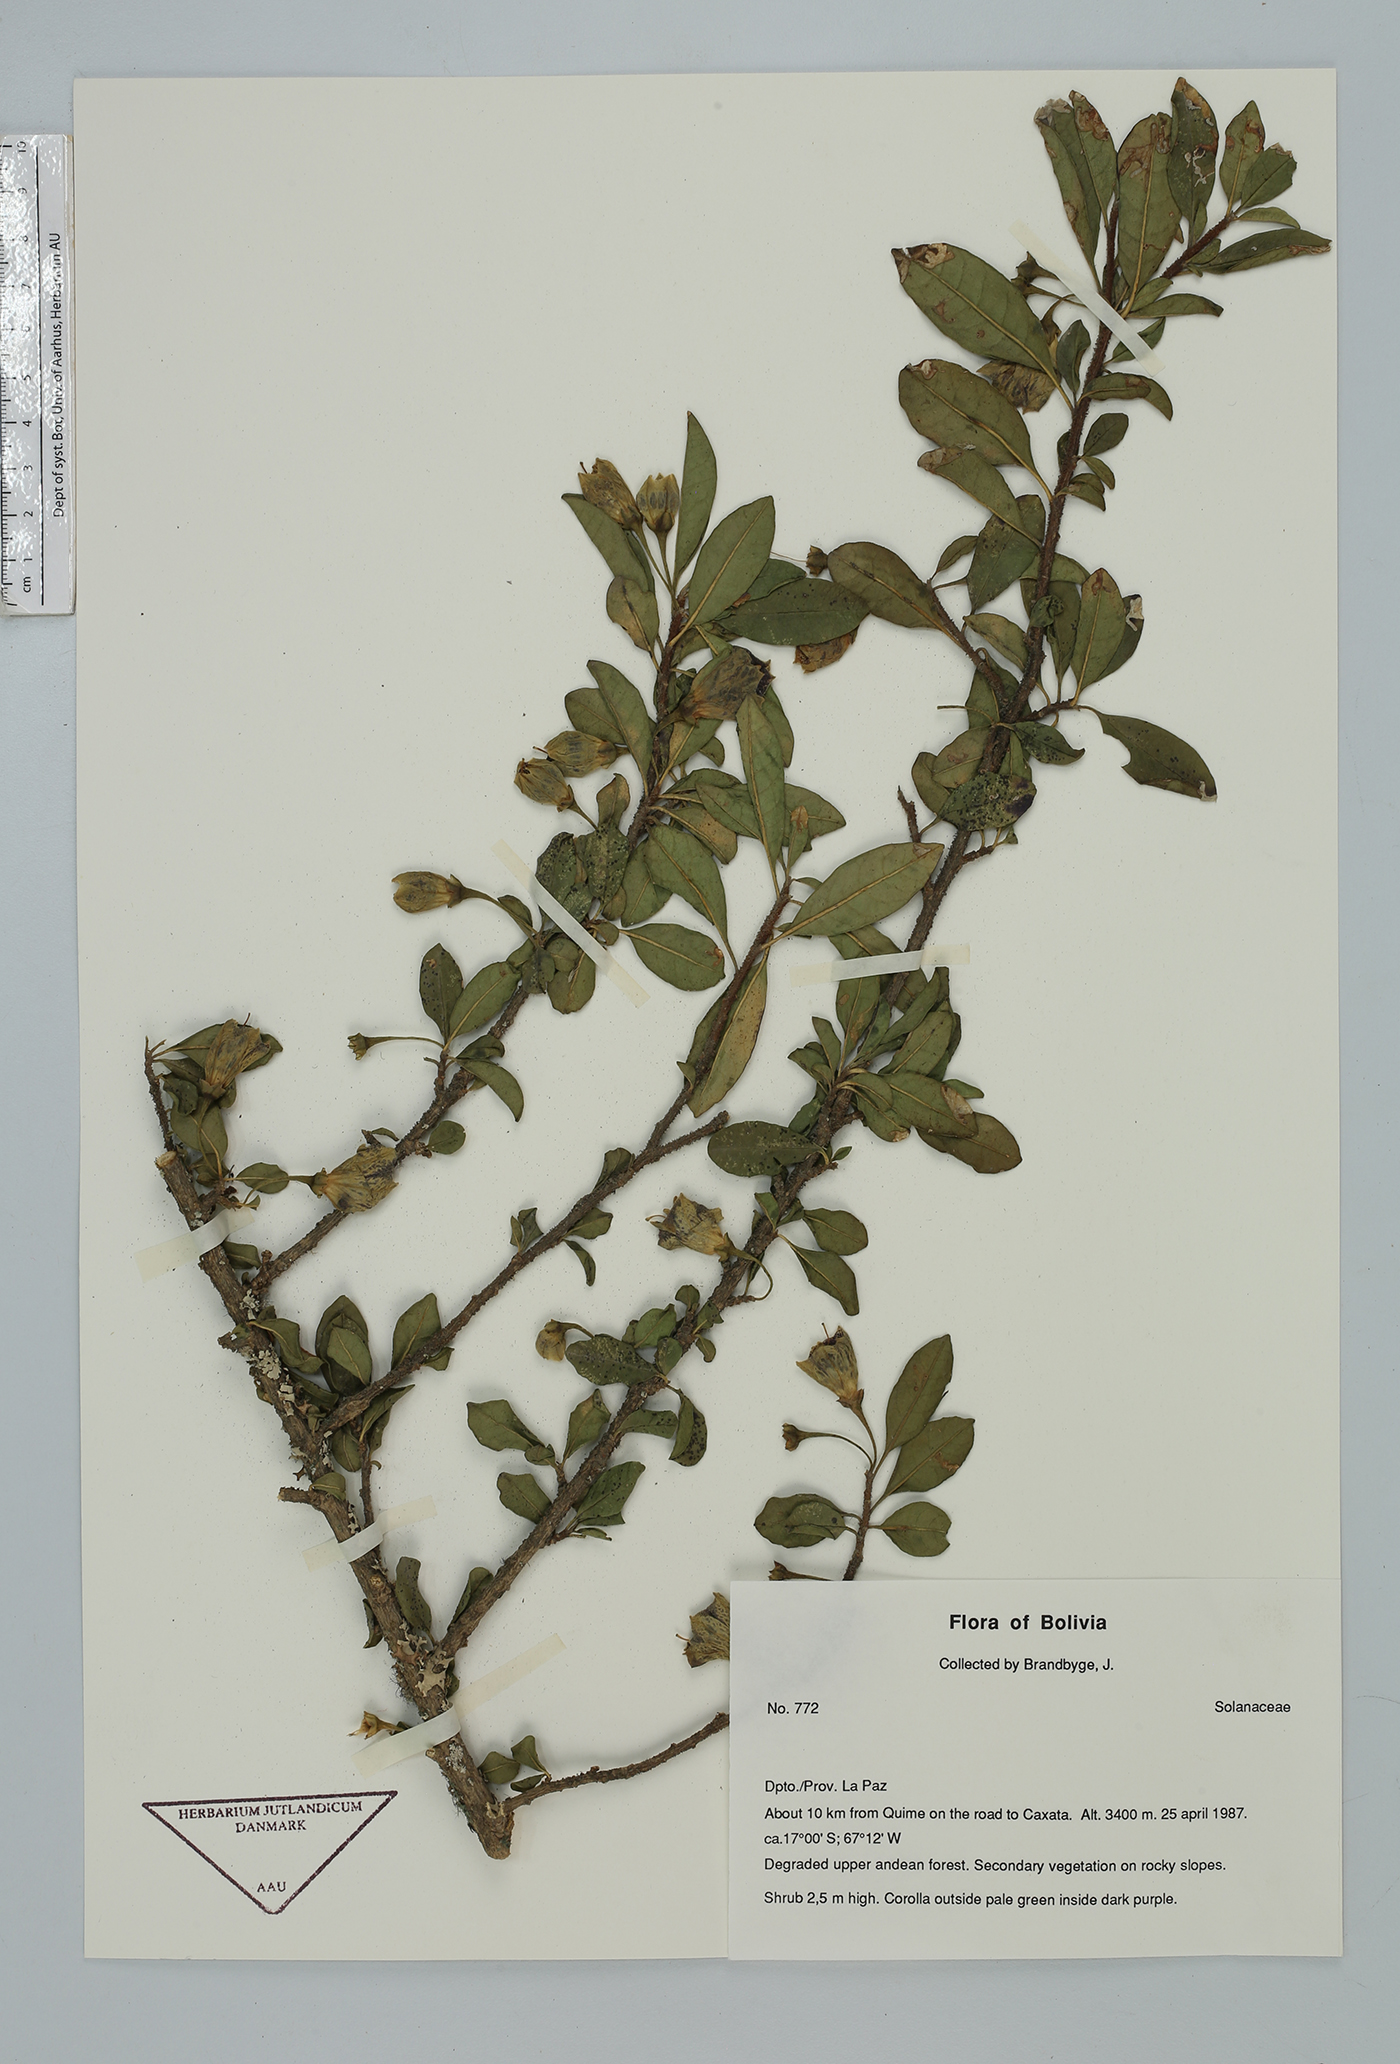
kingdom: Plantae
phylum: Tracheophyta
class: Magnoliopsida
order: Solanales
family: Solanaceae
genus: Saracha
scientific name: Saracha punctata
